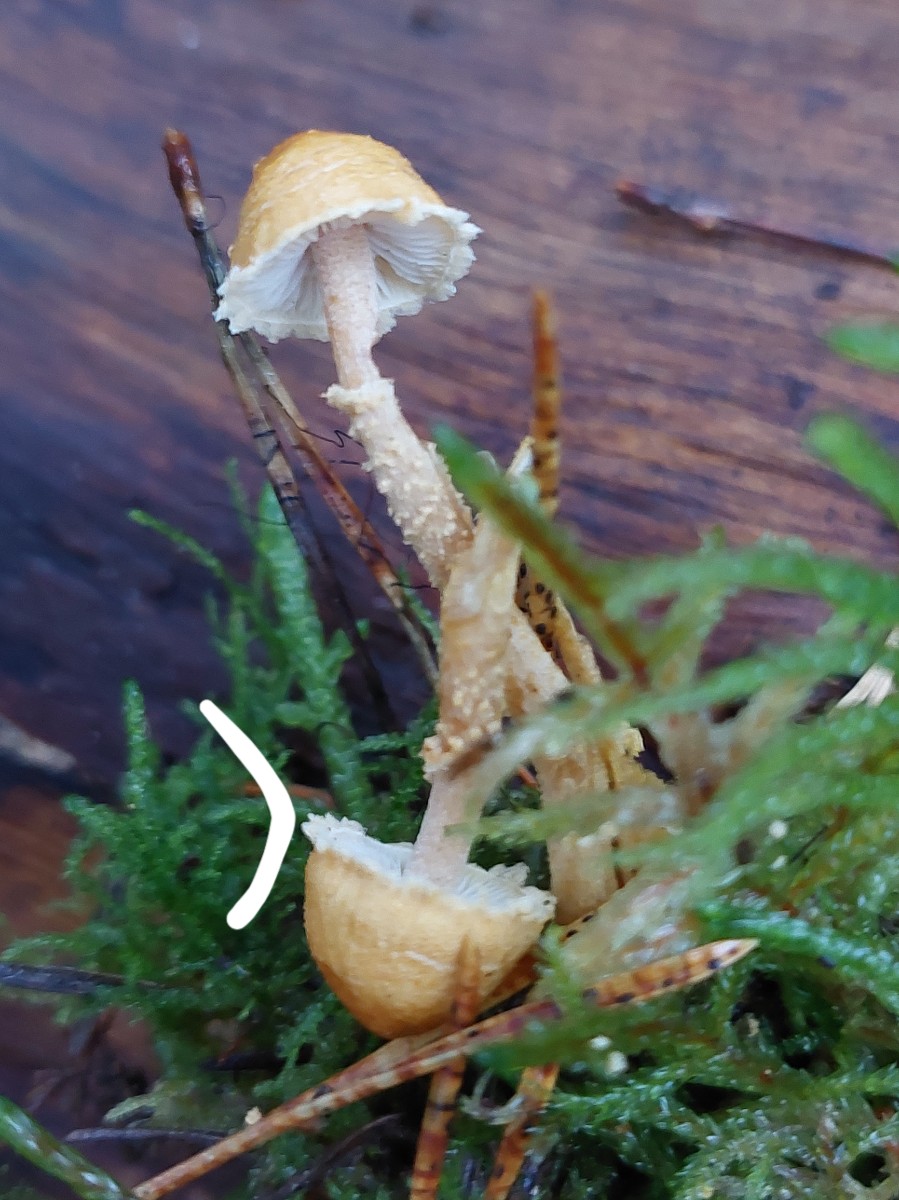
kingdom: Fungi
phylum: Basidiomycota
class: Agaricomycetes
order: Agaricales
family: Tricholomataceae
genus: Cystoderma
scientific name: Cystoderma amianthinum
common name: okkergul grynhat
